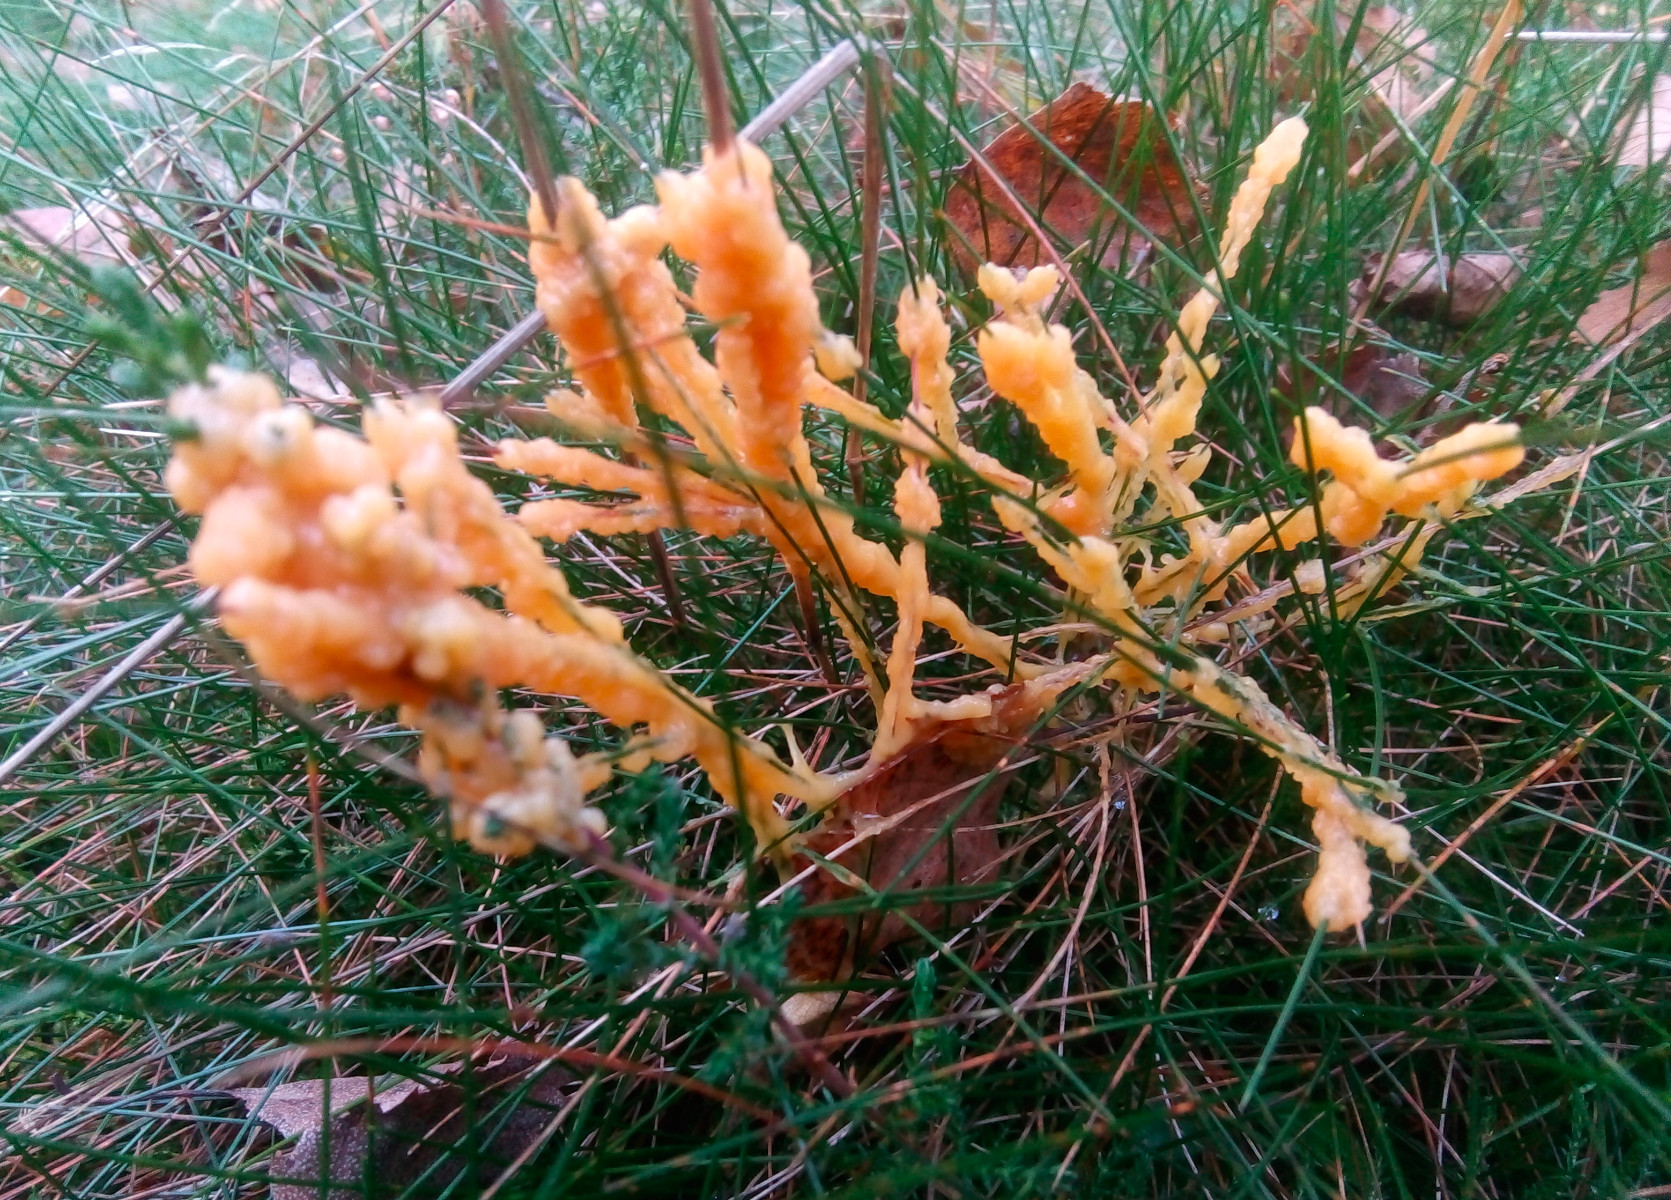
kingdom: Protozoa
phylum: Mycetozoa
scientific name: Mycetozoa
